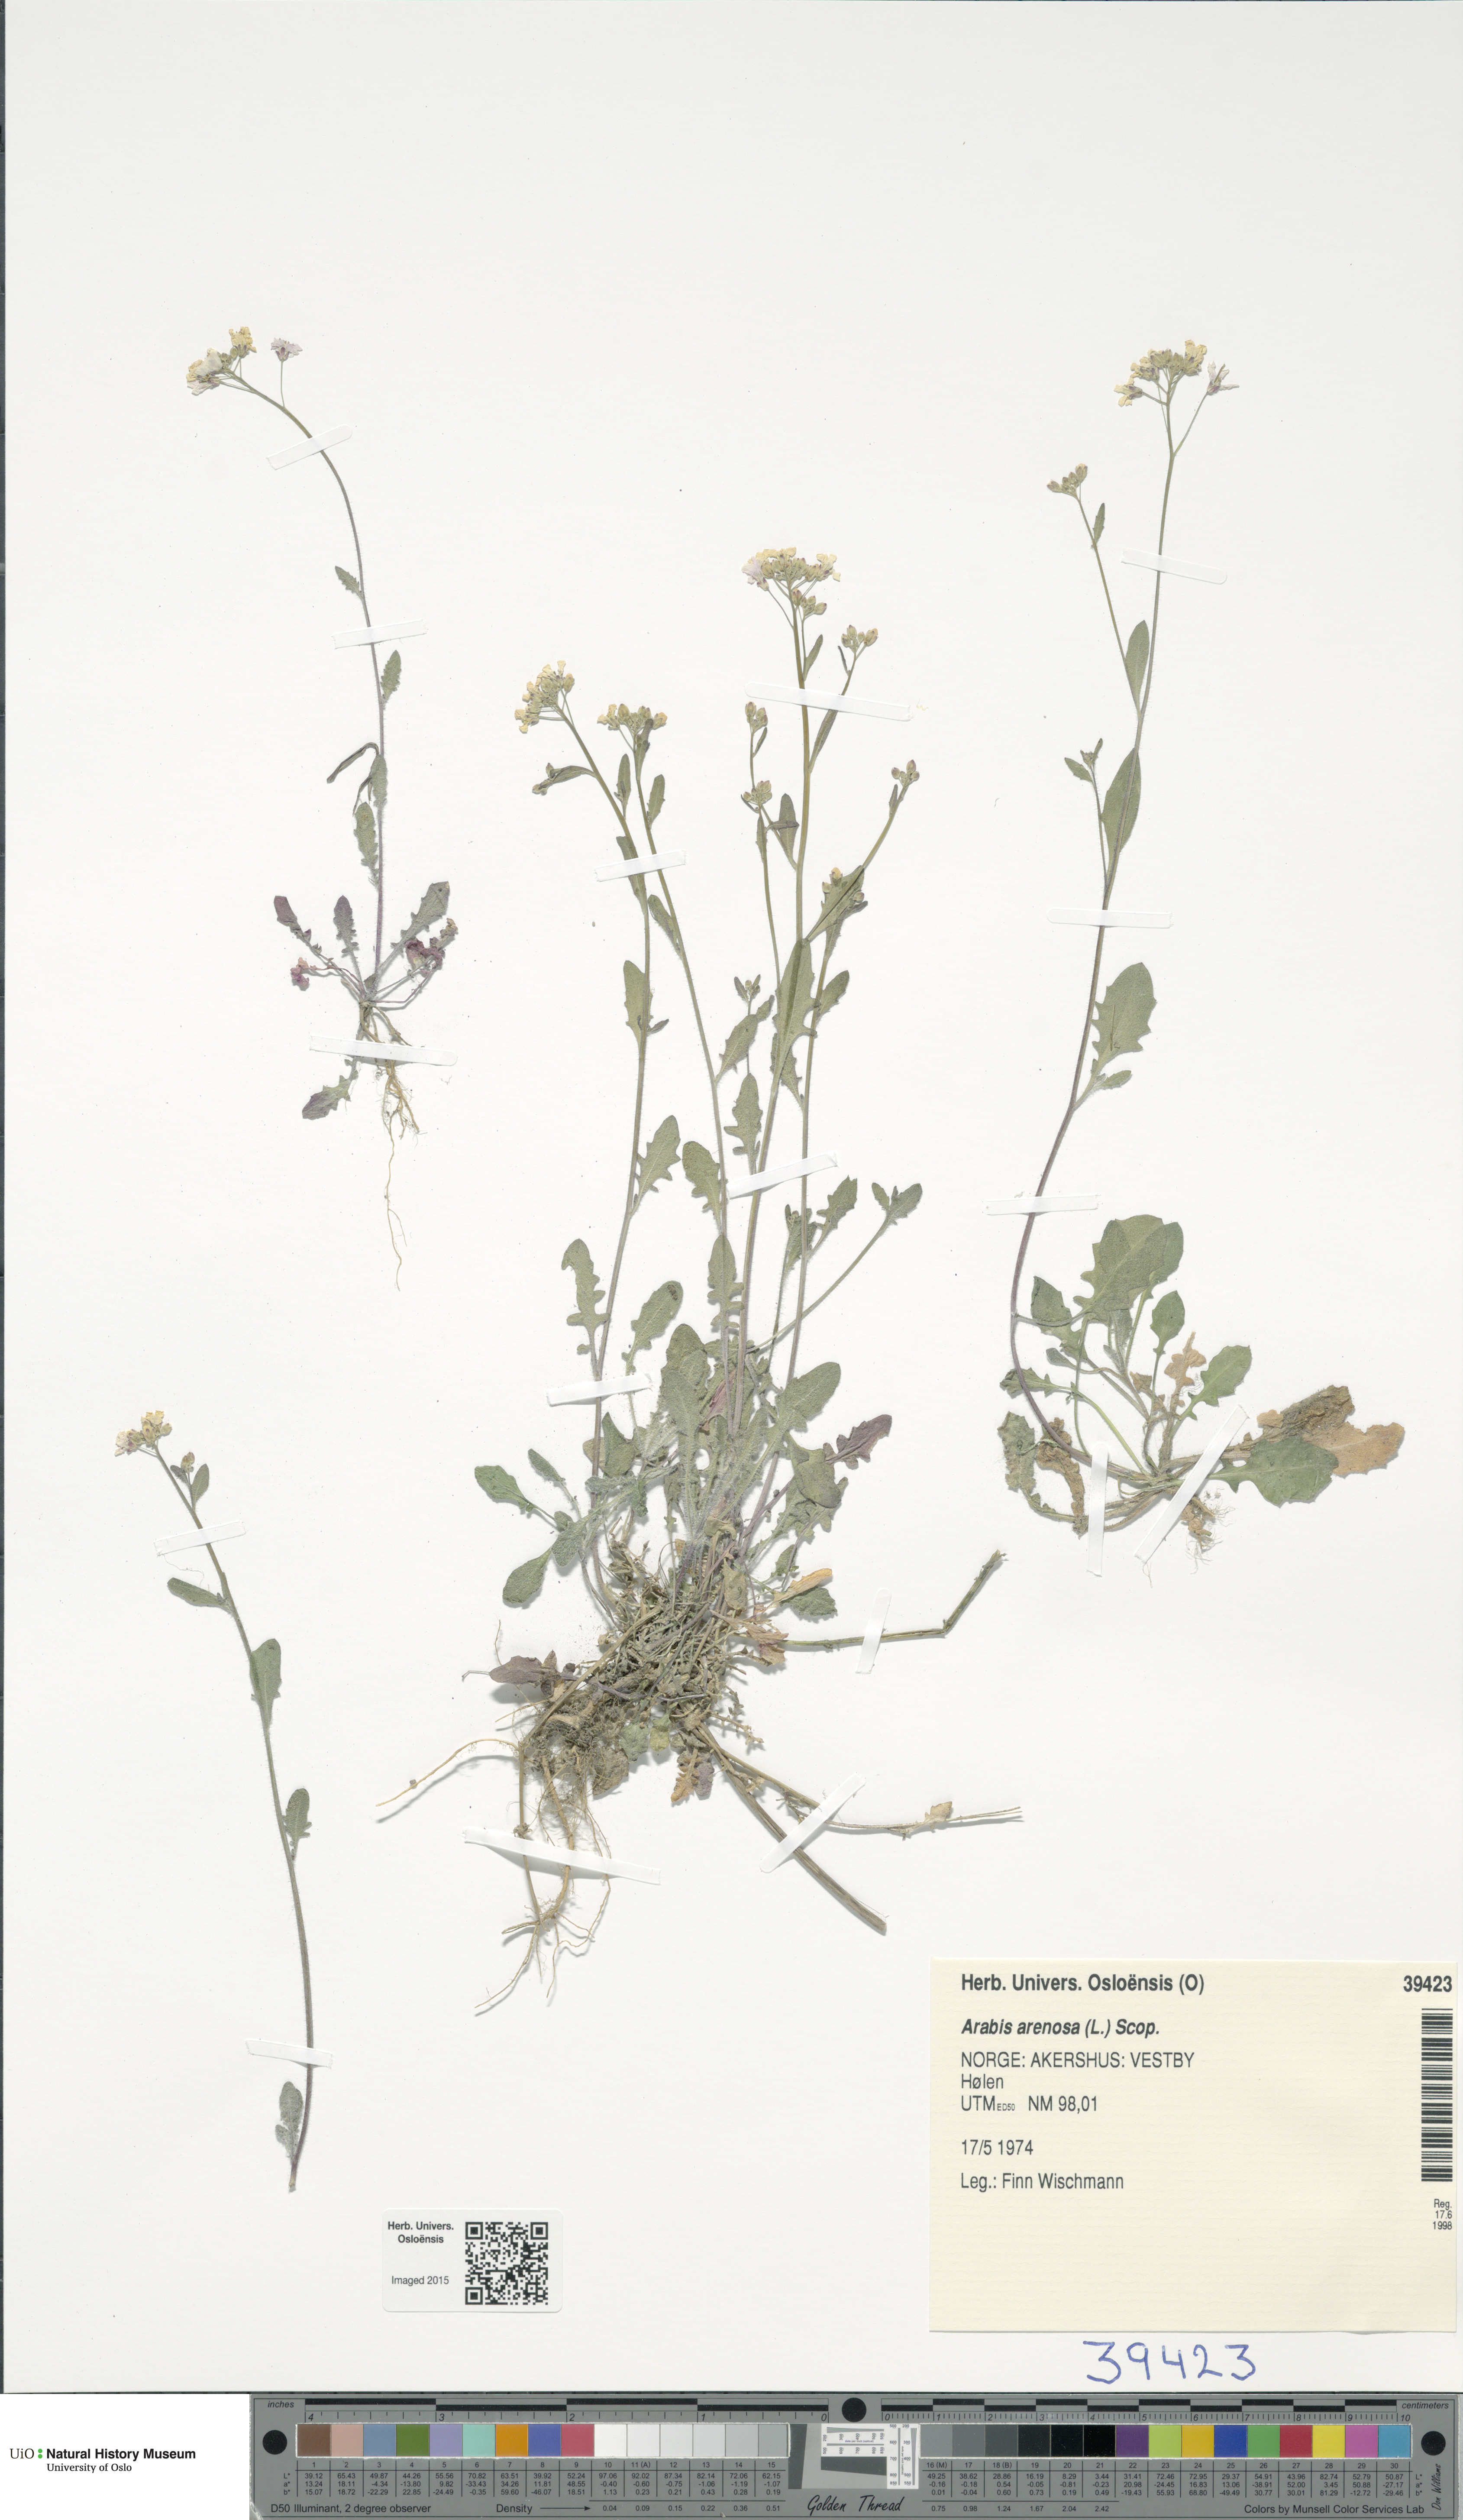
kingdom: Plantae
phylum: Tracheophyta
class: Magnoliopsida
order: Brassicales
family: Brassicaceae
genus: Arabidopsis
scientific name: Arabidopsis arenosa
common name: Sand rock-cress
